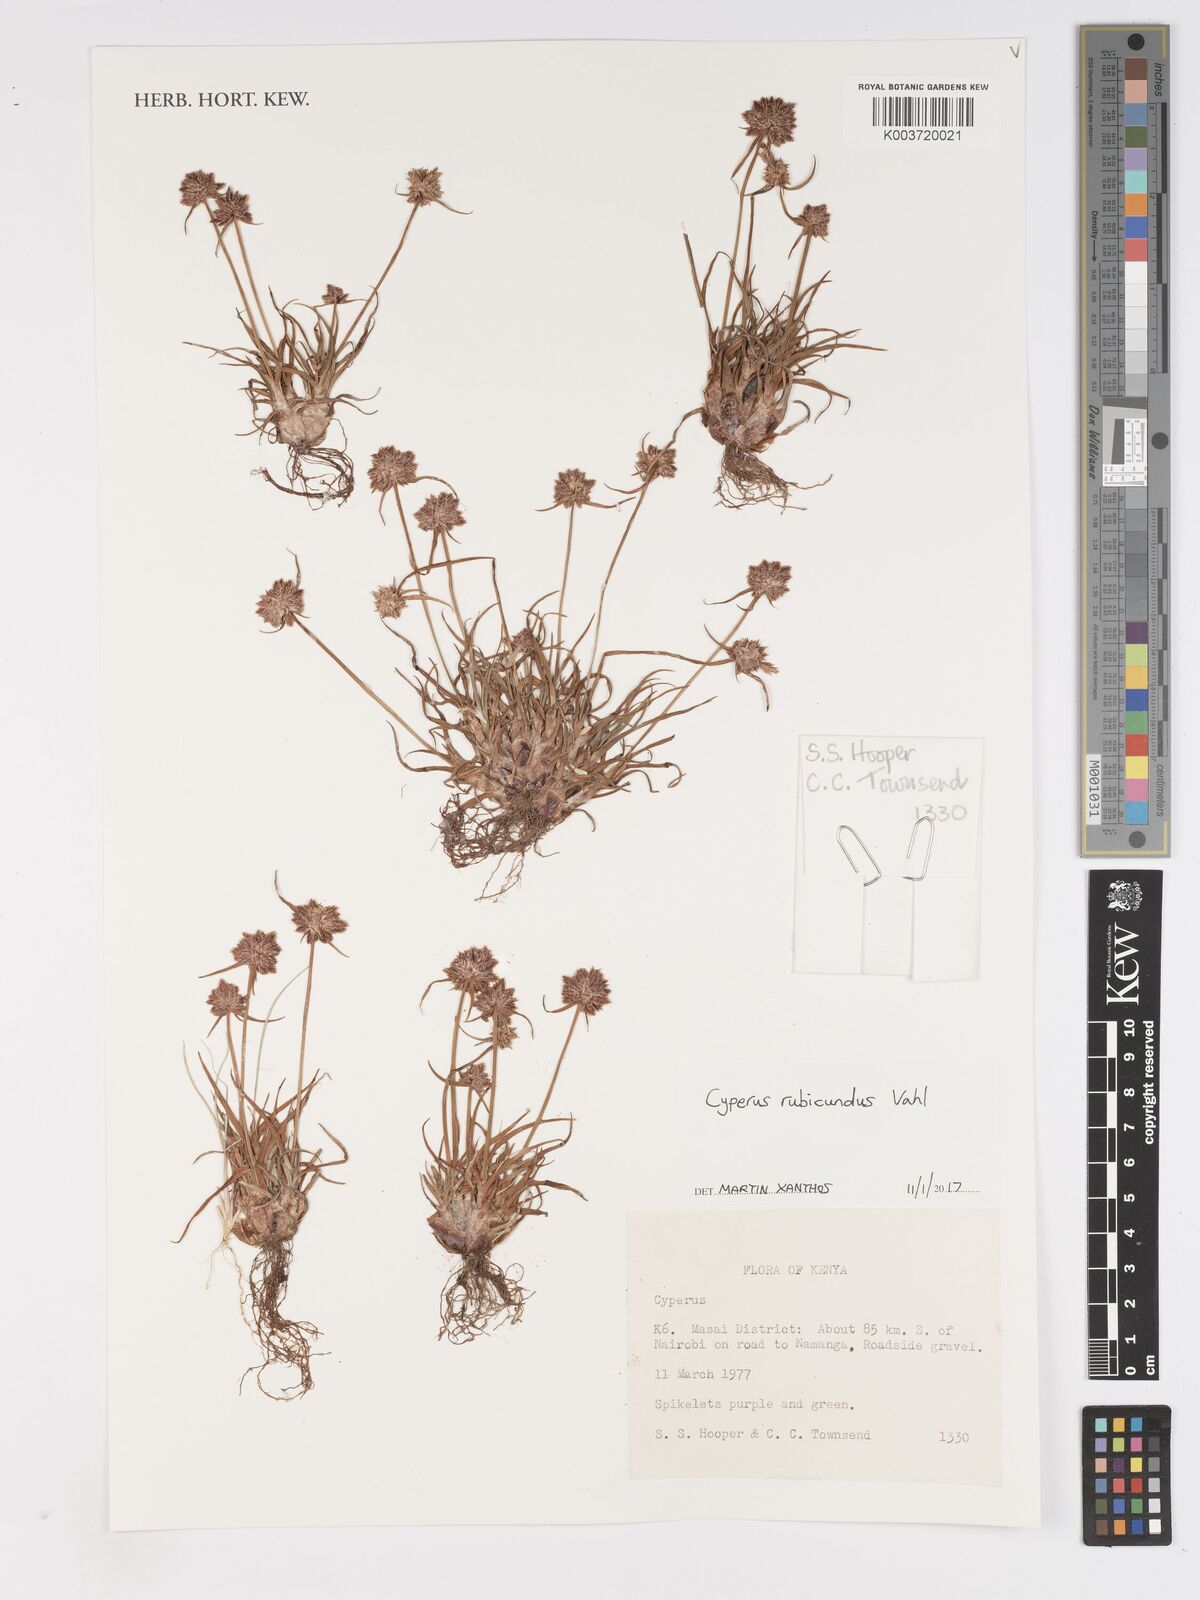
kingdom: Plantae
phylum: Tracheophyta
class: Liliopsida
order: Poales
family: Cyperaceae
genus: Cyperus
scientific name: Cyperus rubicundus
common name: Coco-grass
